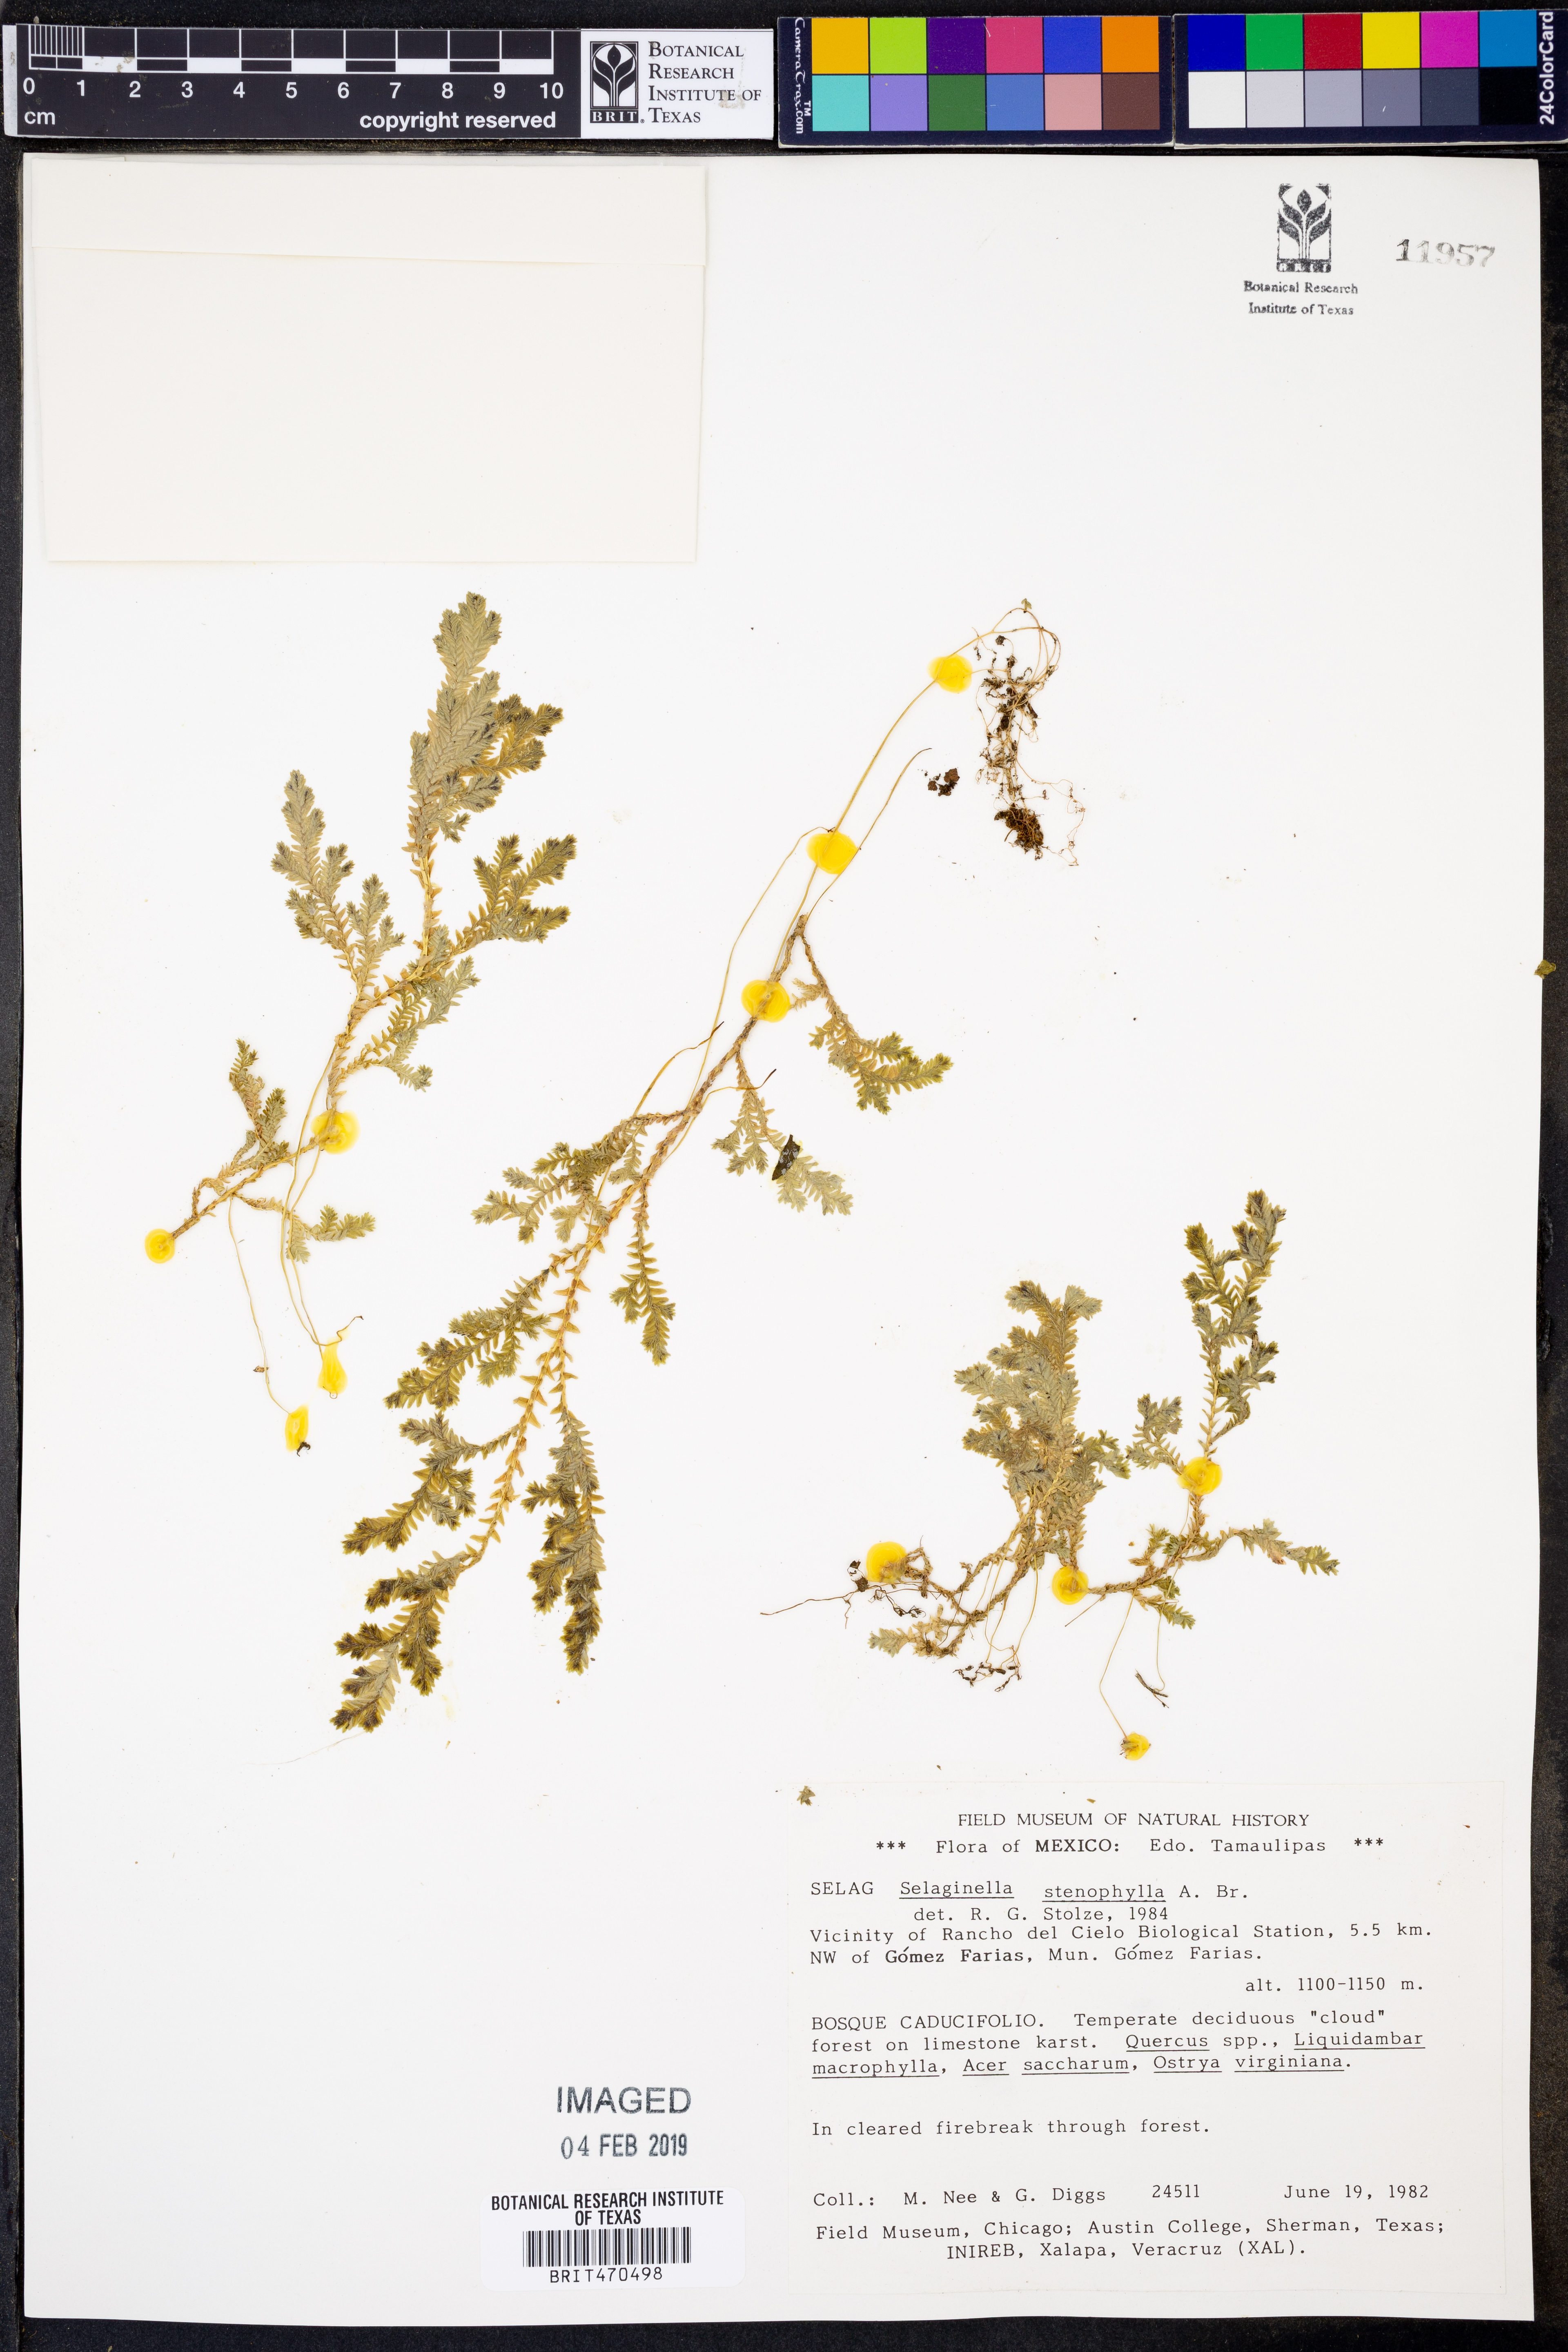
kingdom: Plantae
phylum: Tracheophyta
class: Lycopodiopsida
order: Selaginellales
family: Selaginellaceae
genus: Selaginella
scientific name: Selaginella stenophylla
